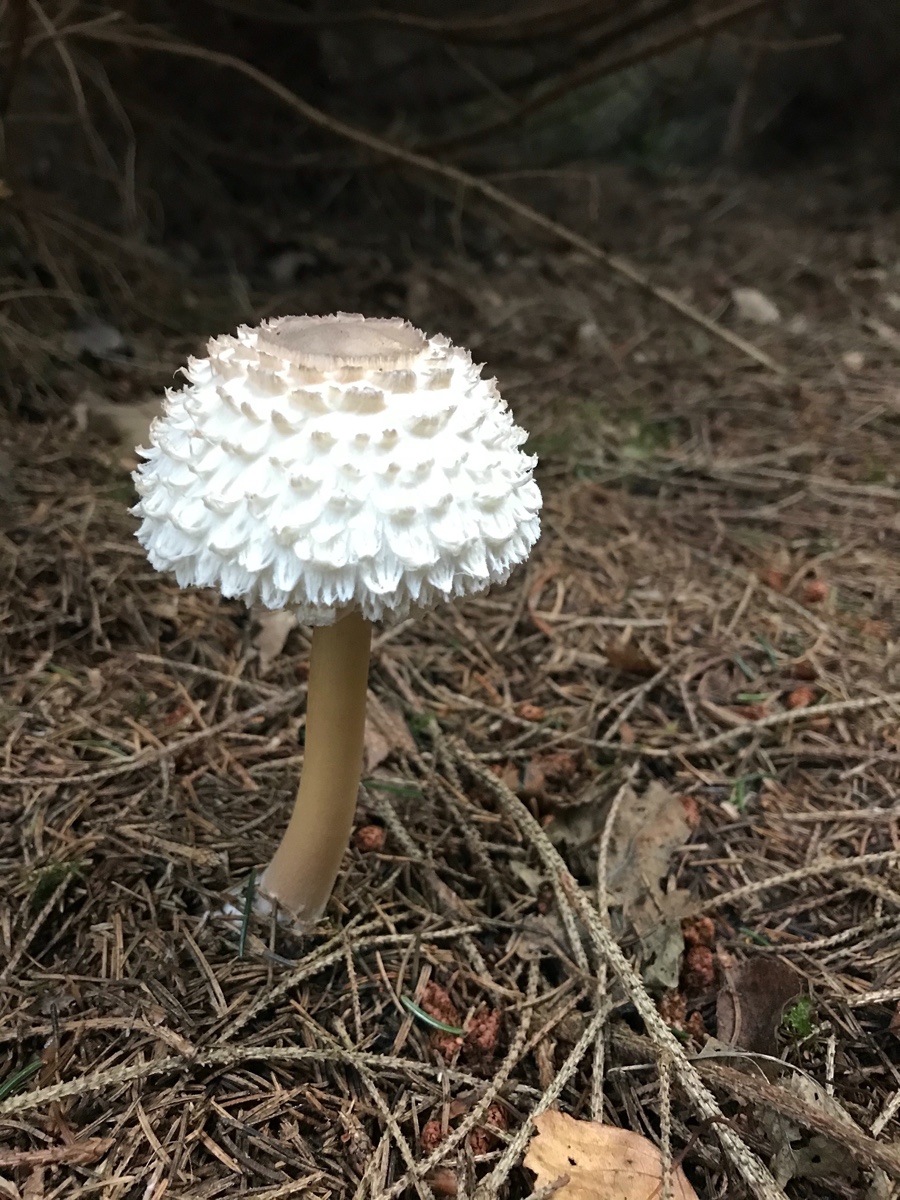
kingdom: Fungi
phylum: Basidiomycota
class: Agaricomycetes
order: Agaricales
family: Agaricaceae
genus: Leucoagaricus
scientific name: Leucoagaricus nympharum
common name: gran-silkehat
